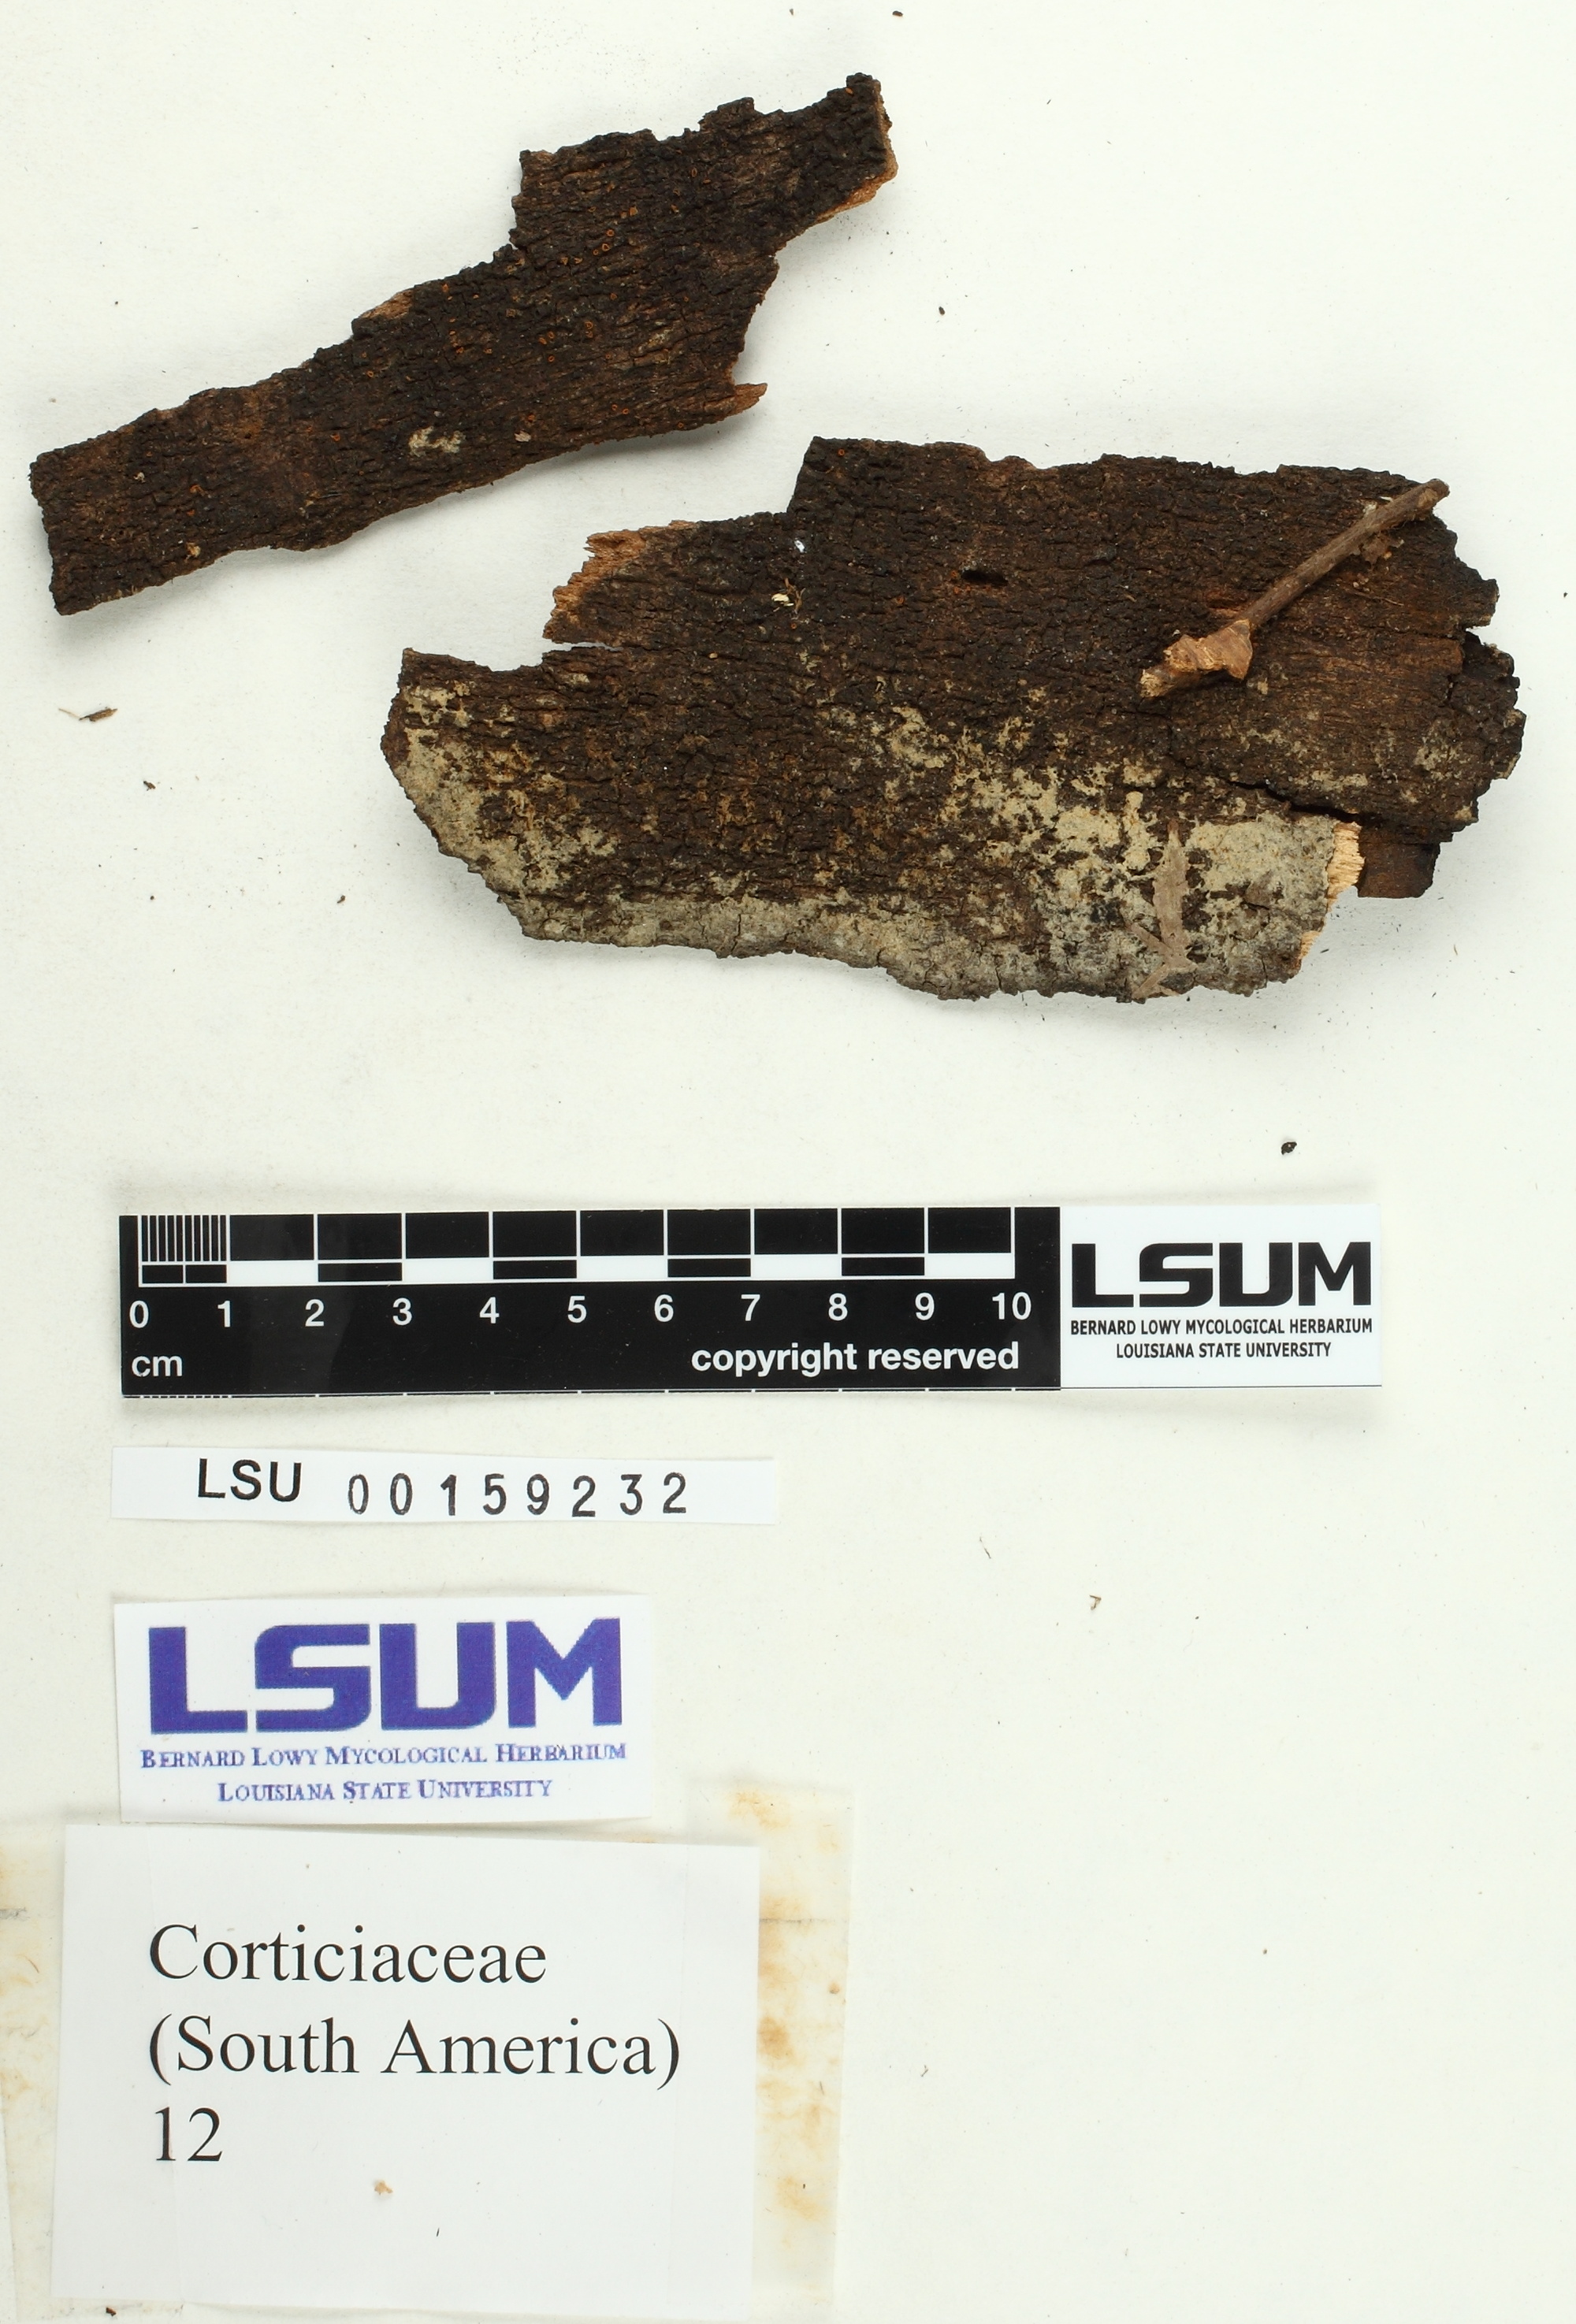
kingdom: Fungi
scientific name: Fungi
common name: Fungi
